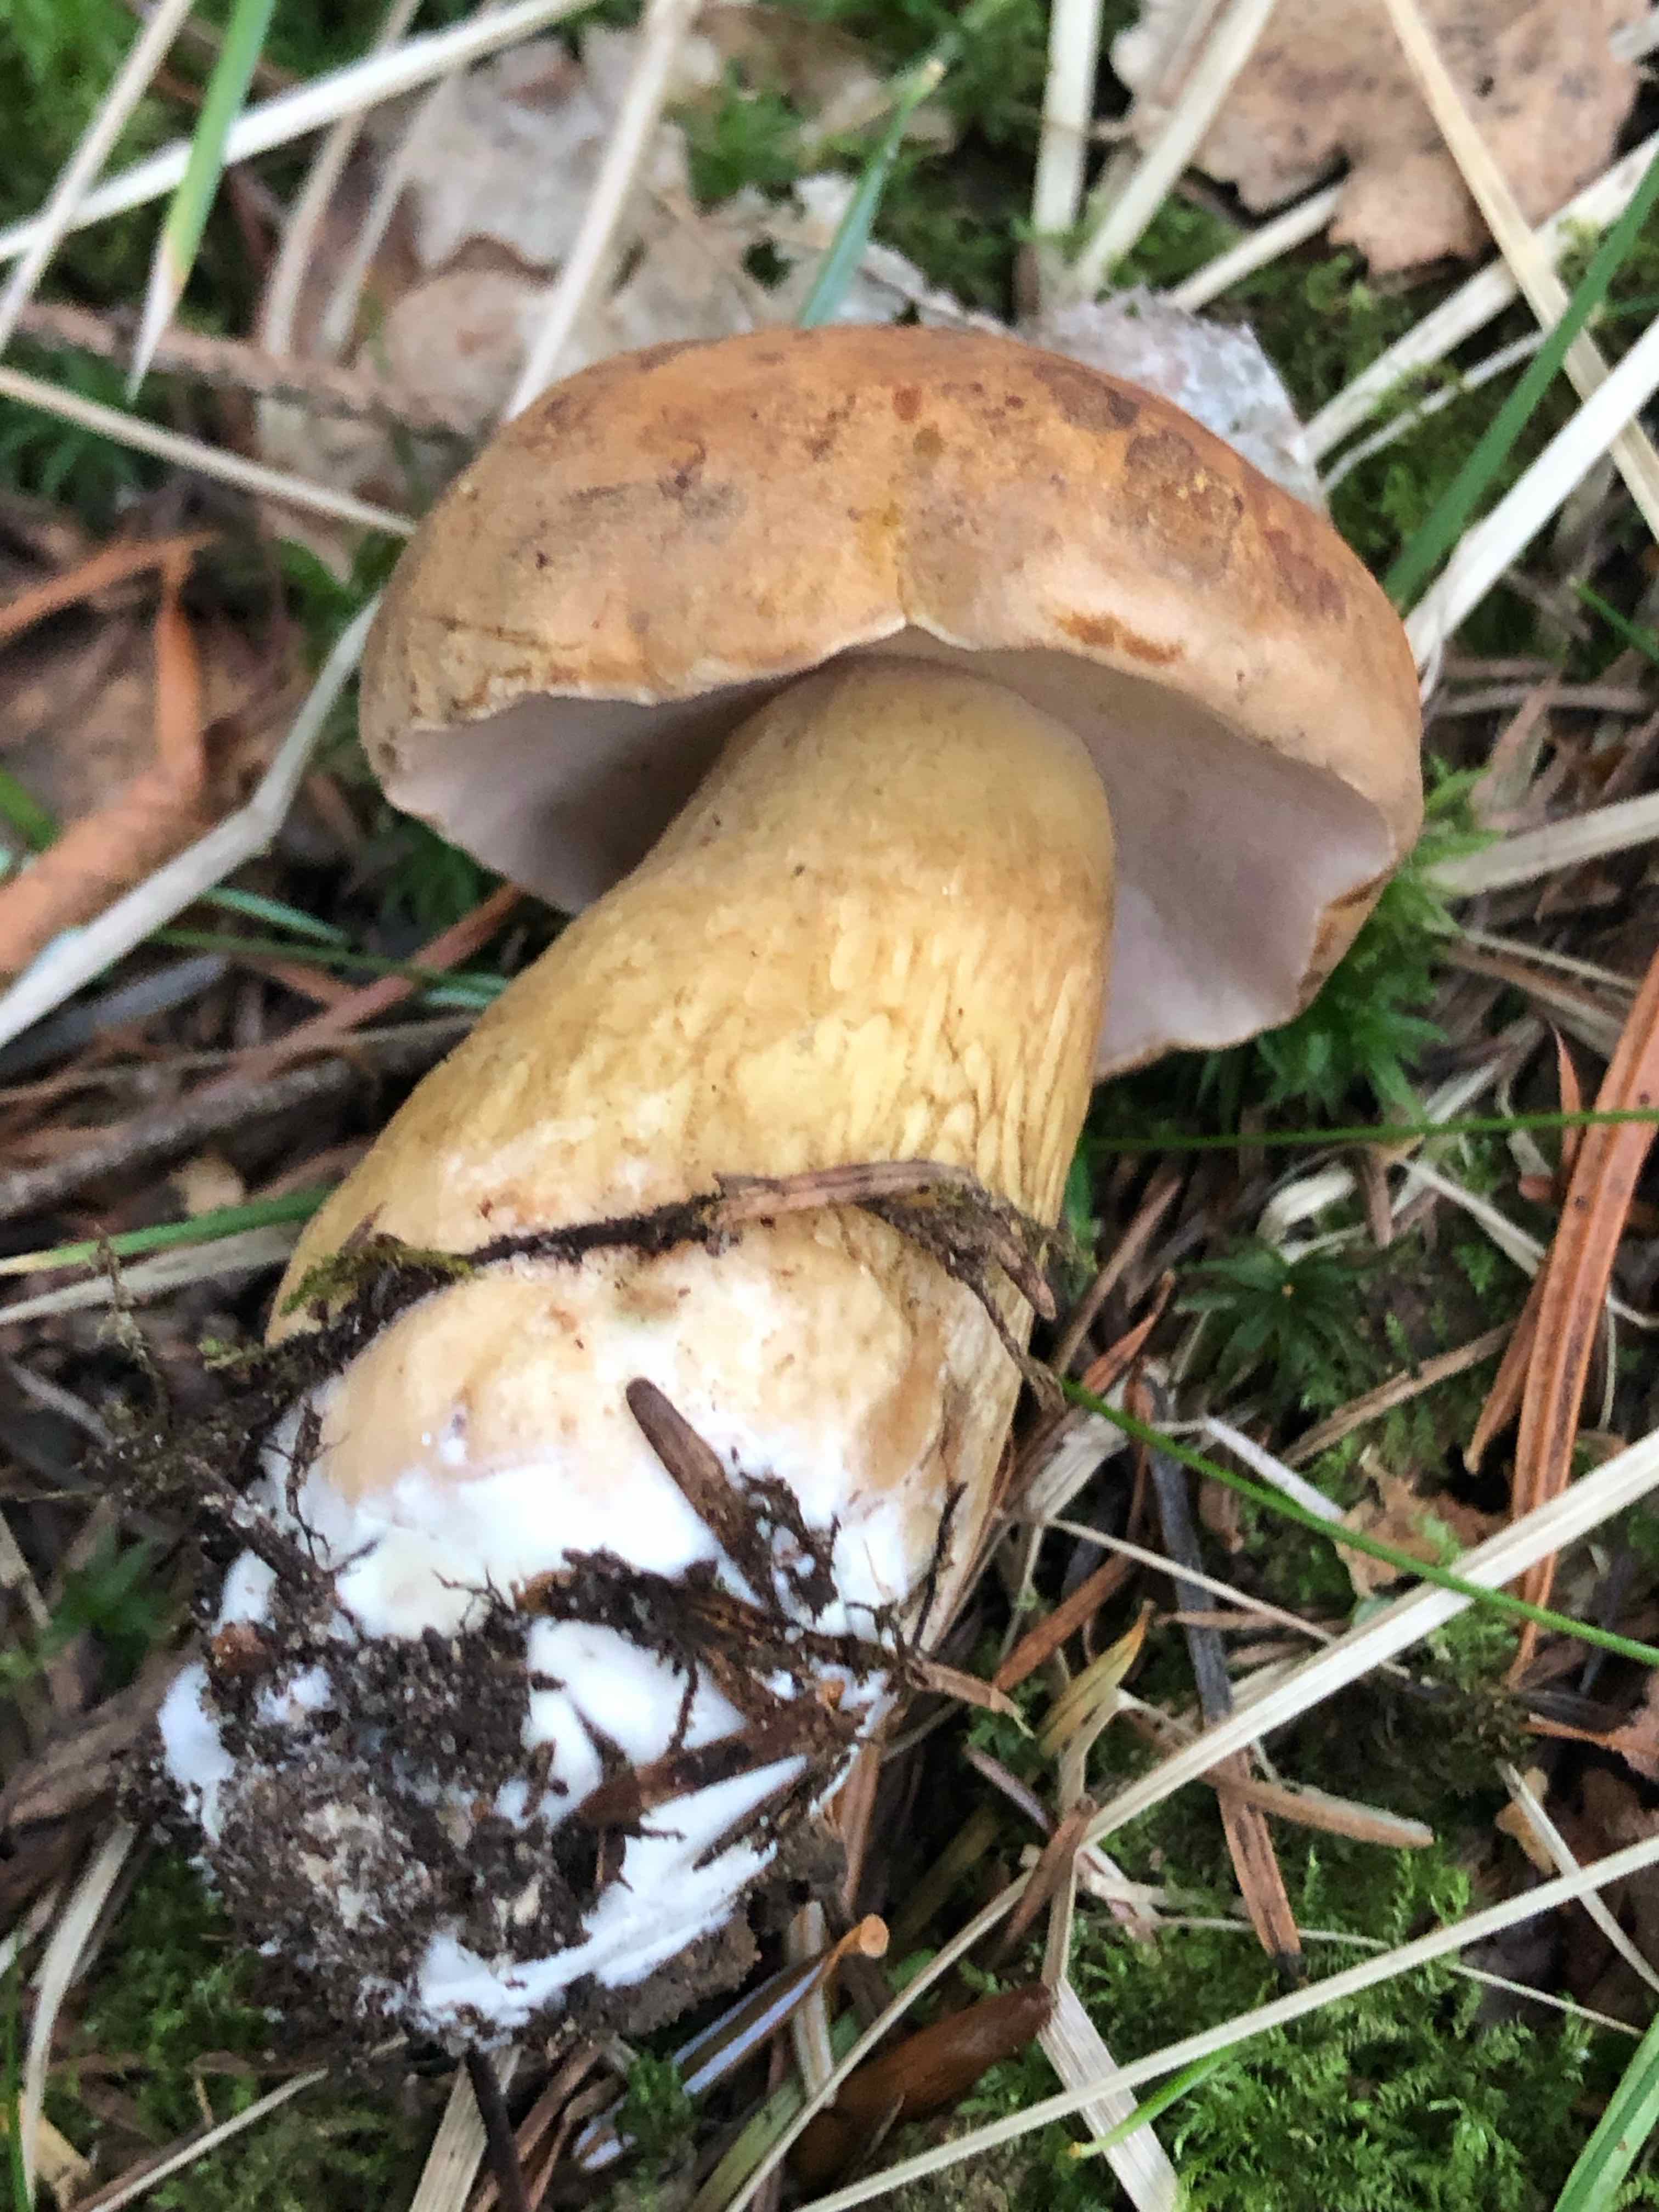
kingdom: Fungi
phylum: Basidiomycota
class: Agaricomycetes
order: Boletales
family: Boletaceae
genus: Tylopilus
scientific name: Tylopilus felleus
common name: galderørhat
